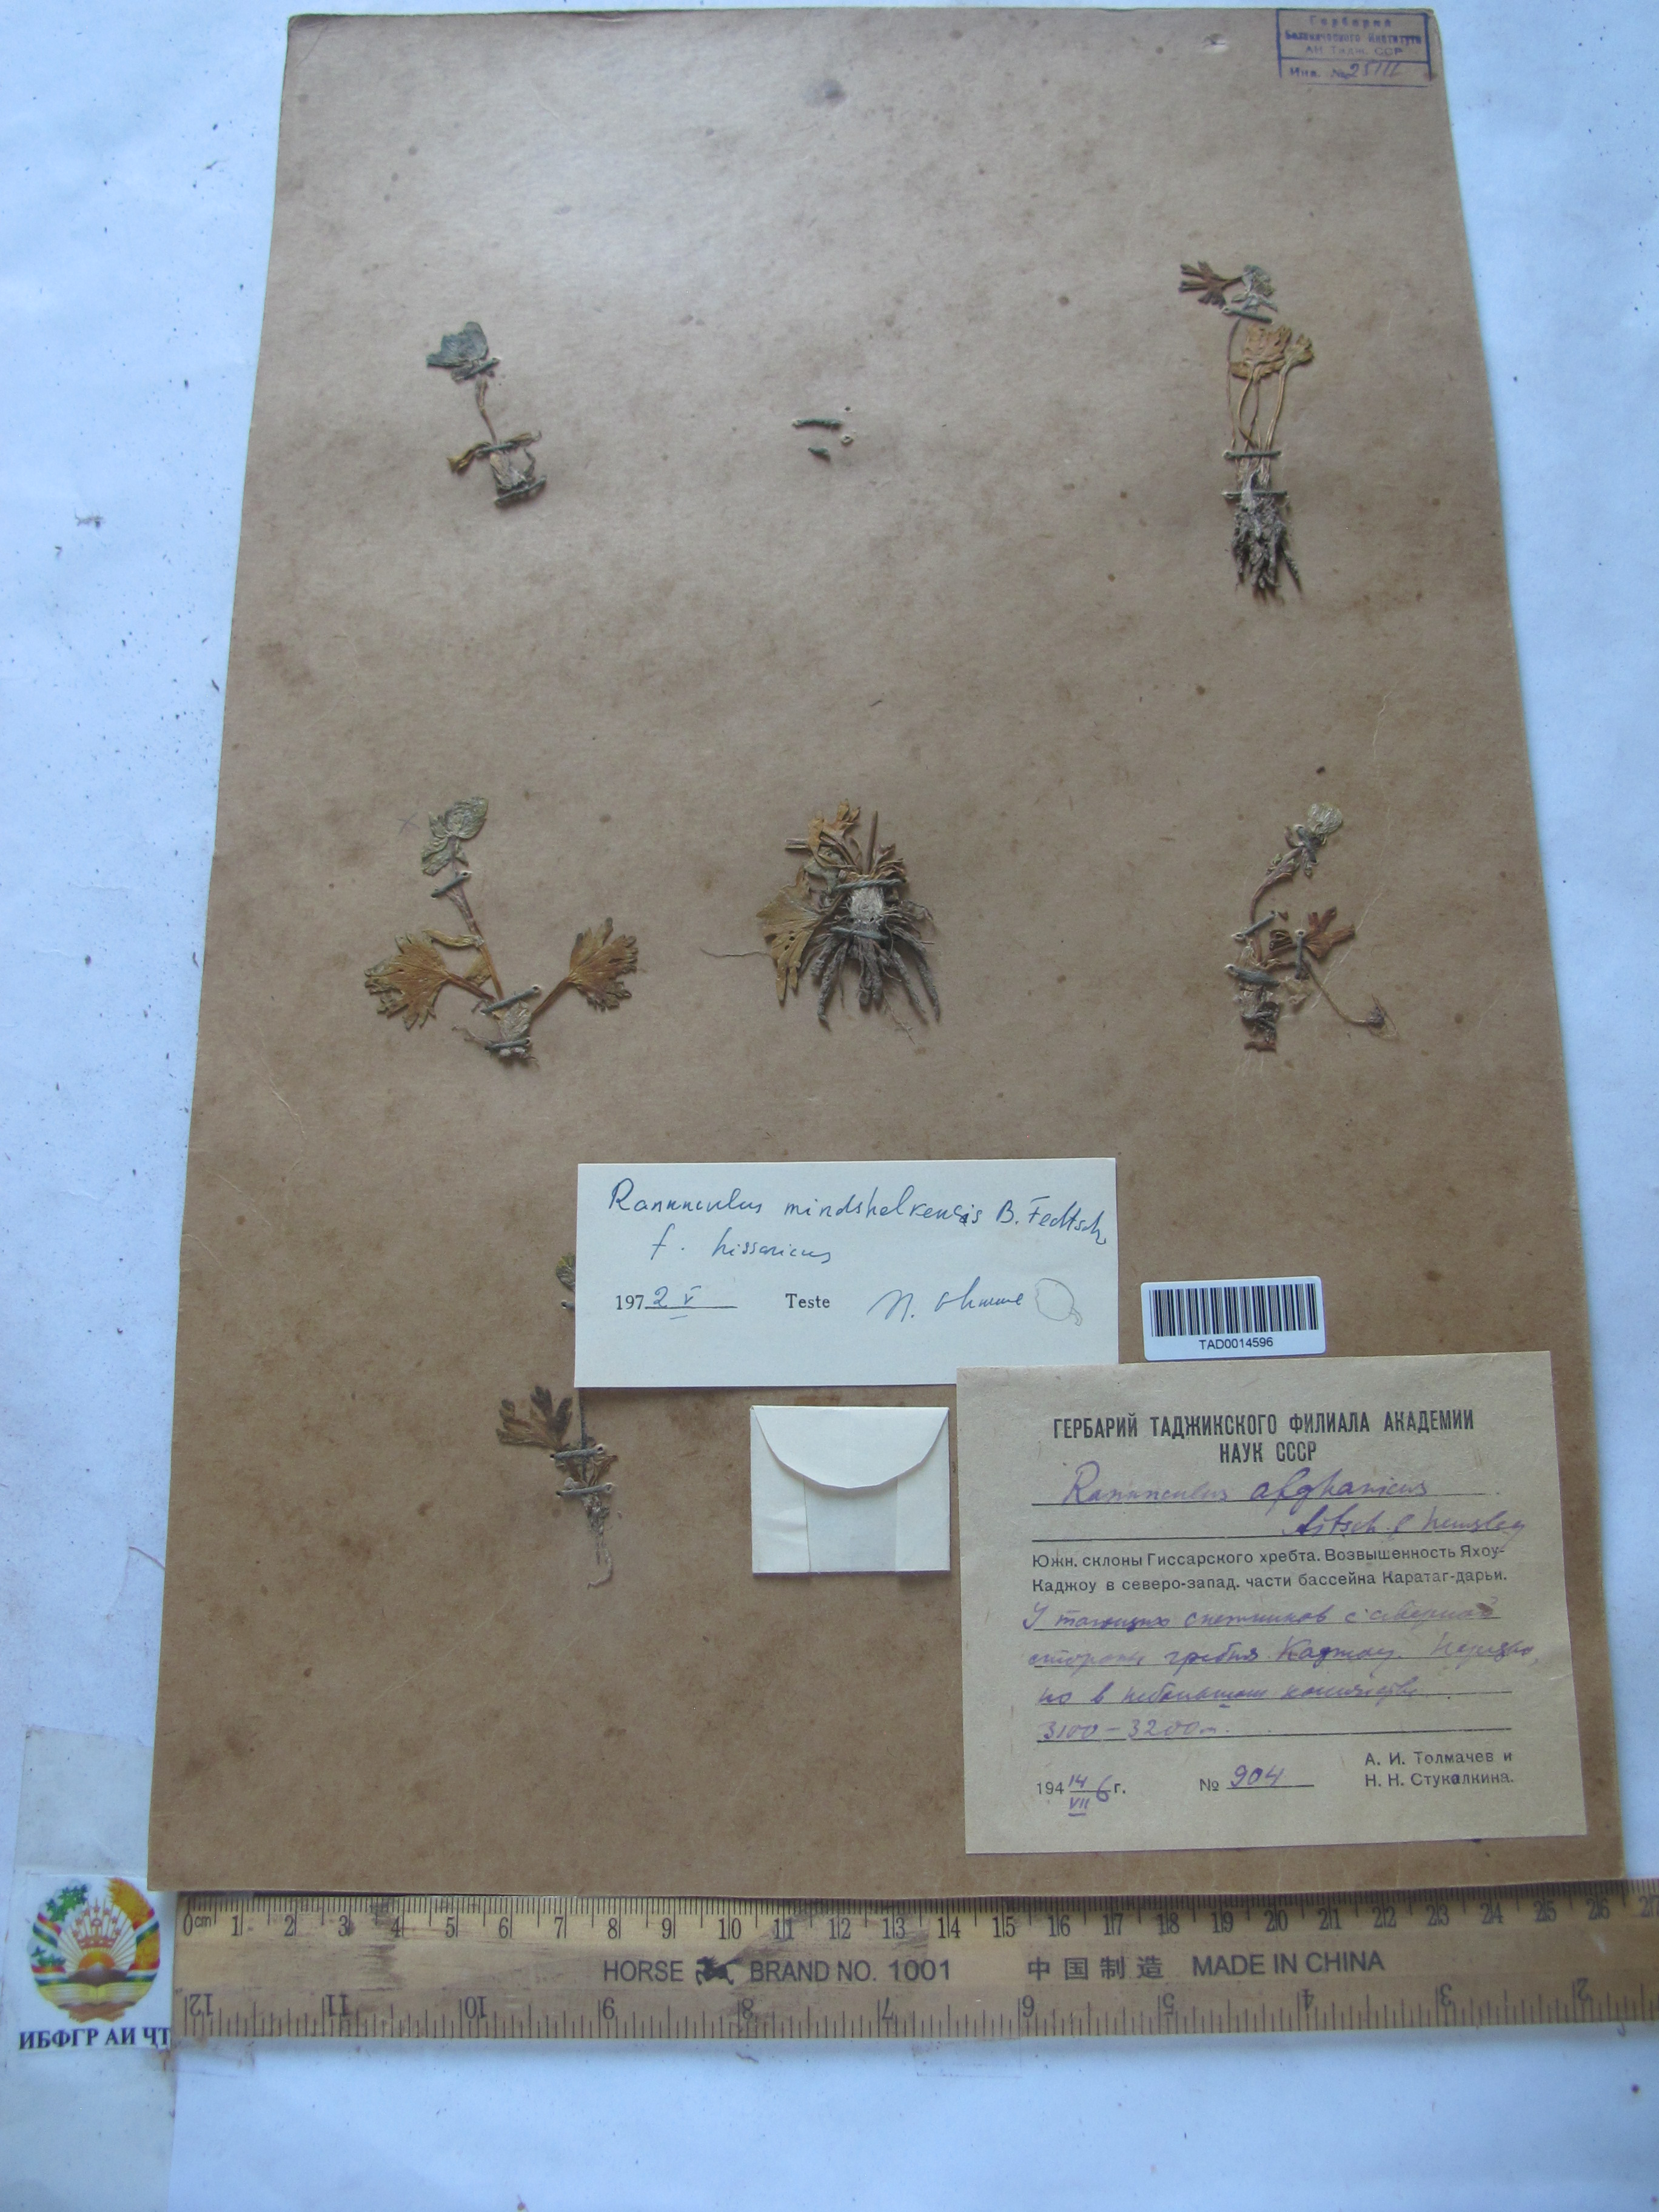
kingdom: Plantae
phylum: Tracheophyta
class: Magnoliopsida
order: Ranunculales
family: Ranunculaceae
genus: Ranunculus
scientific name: Ranunculus mindshelkensis
